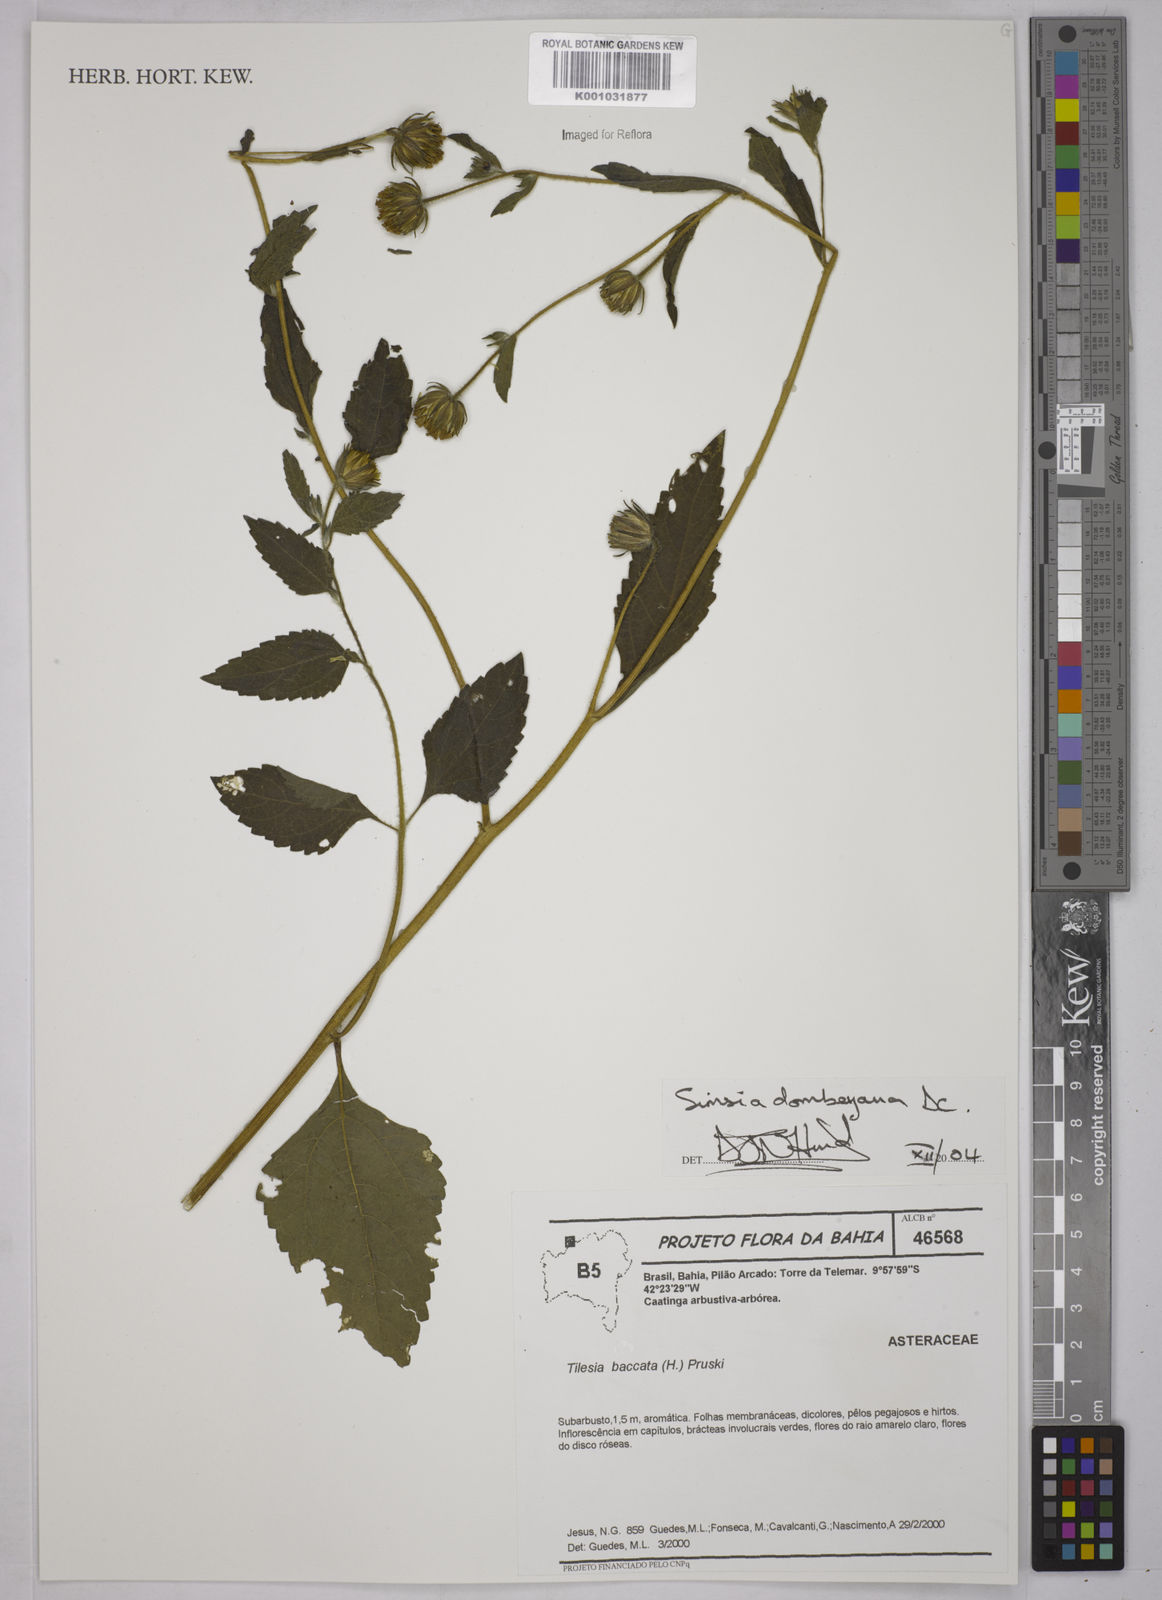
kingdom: Plantae
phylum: Tracheophyta
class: Magnoliopsida
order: Asterales
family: Asteraceae
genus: Simsia
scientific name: Simsia dombeyana
